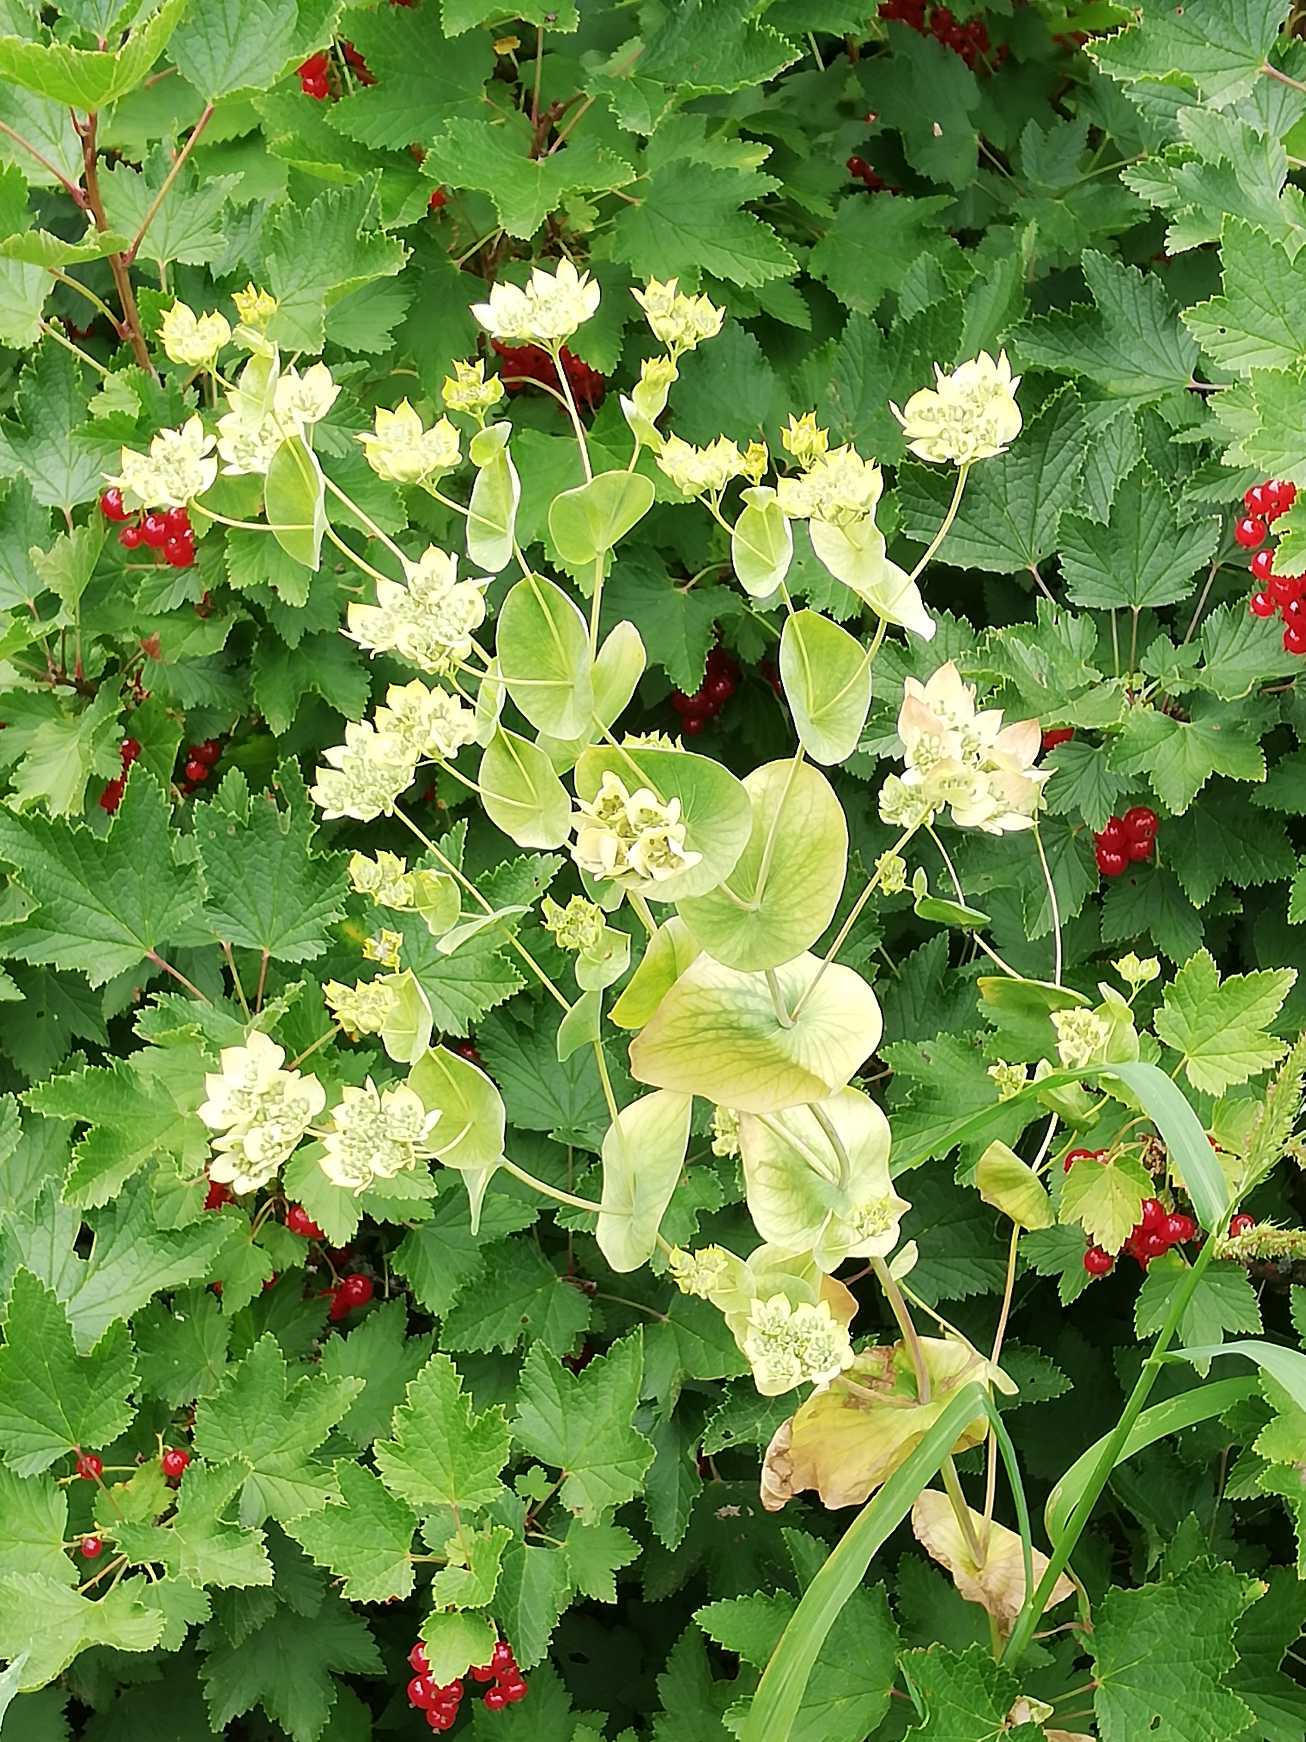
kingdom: Plantae
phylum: Tracheophyta
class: Magnoliopsida
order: Apiales
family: Apiaceae
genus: Bupleurum
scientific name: Bupleurum rotundifolium
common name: Rundbladet hareøre
